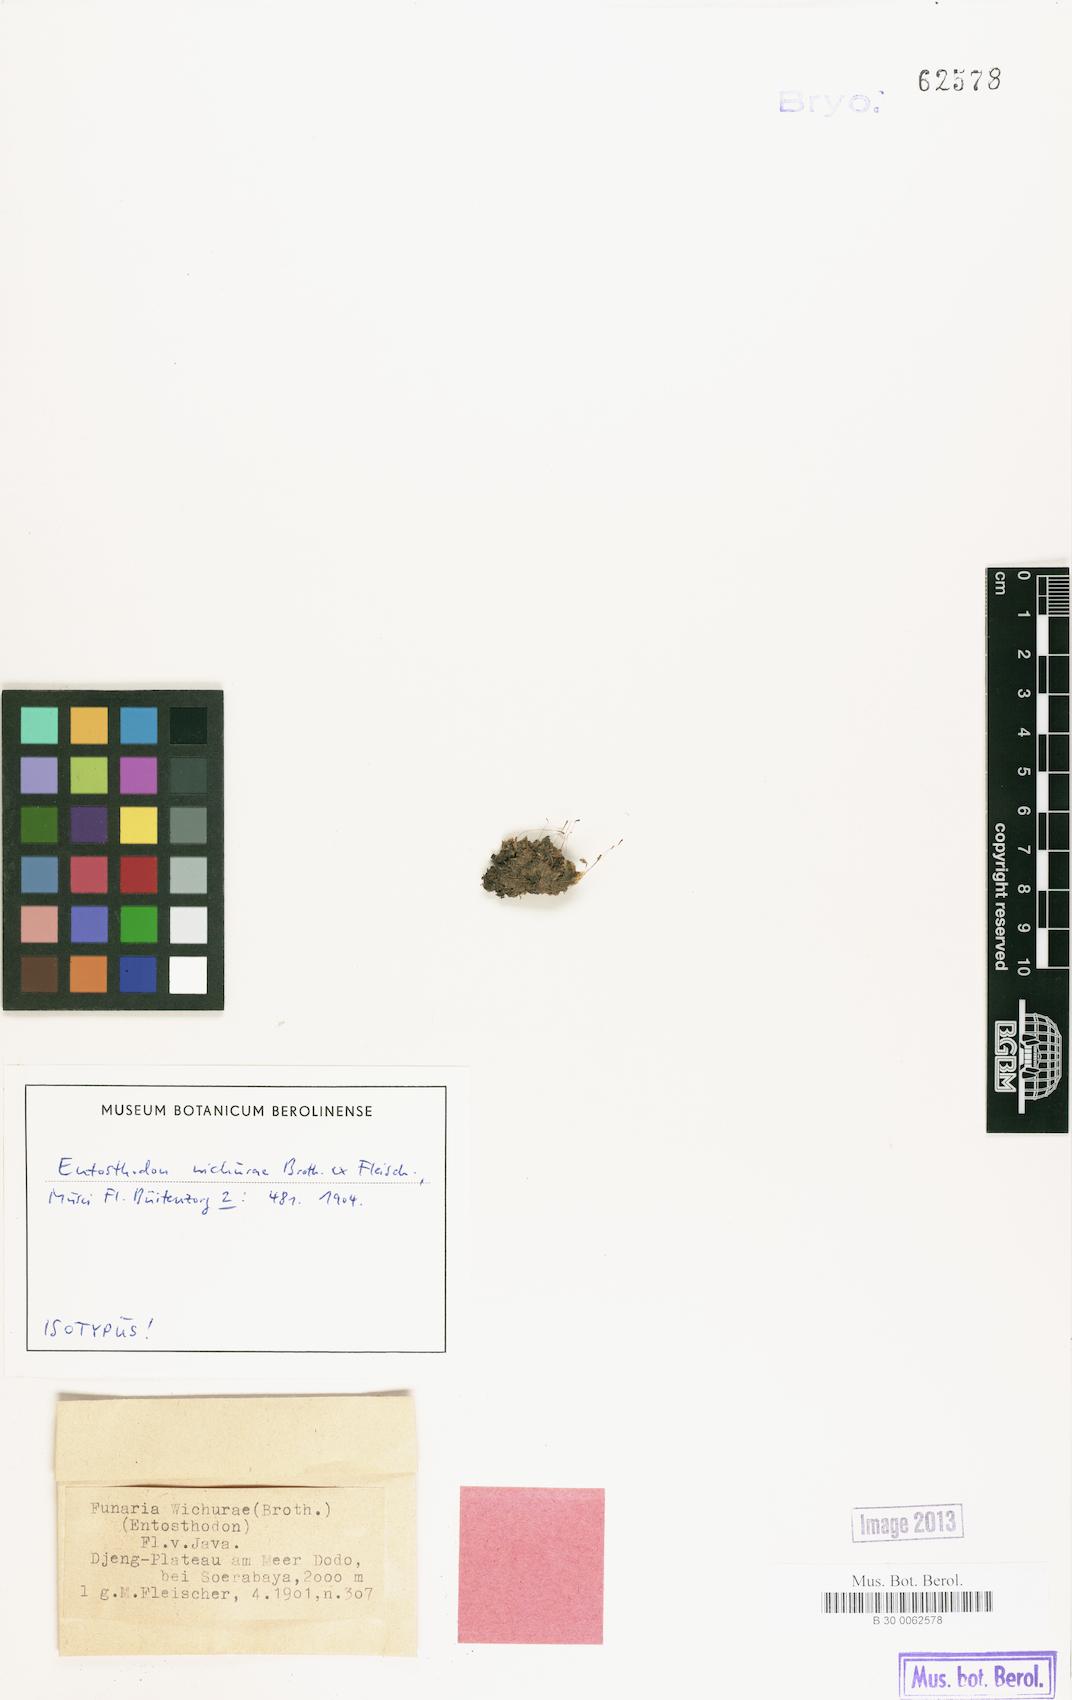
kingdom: Plantae
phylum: Bryophyta
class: Bryopsida
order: Funariales
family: Funariaceae
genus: Entosthodon
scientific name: Entosthodon wichurae
